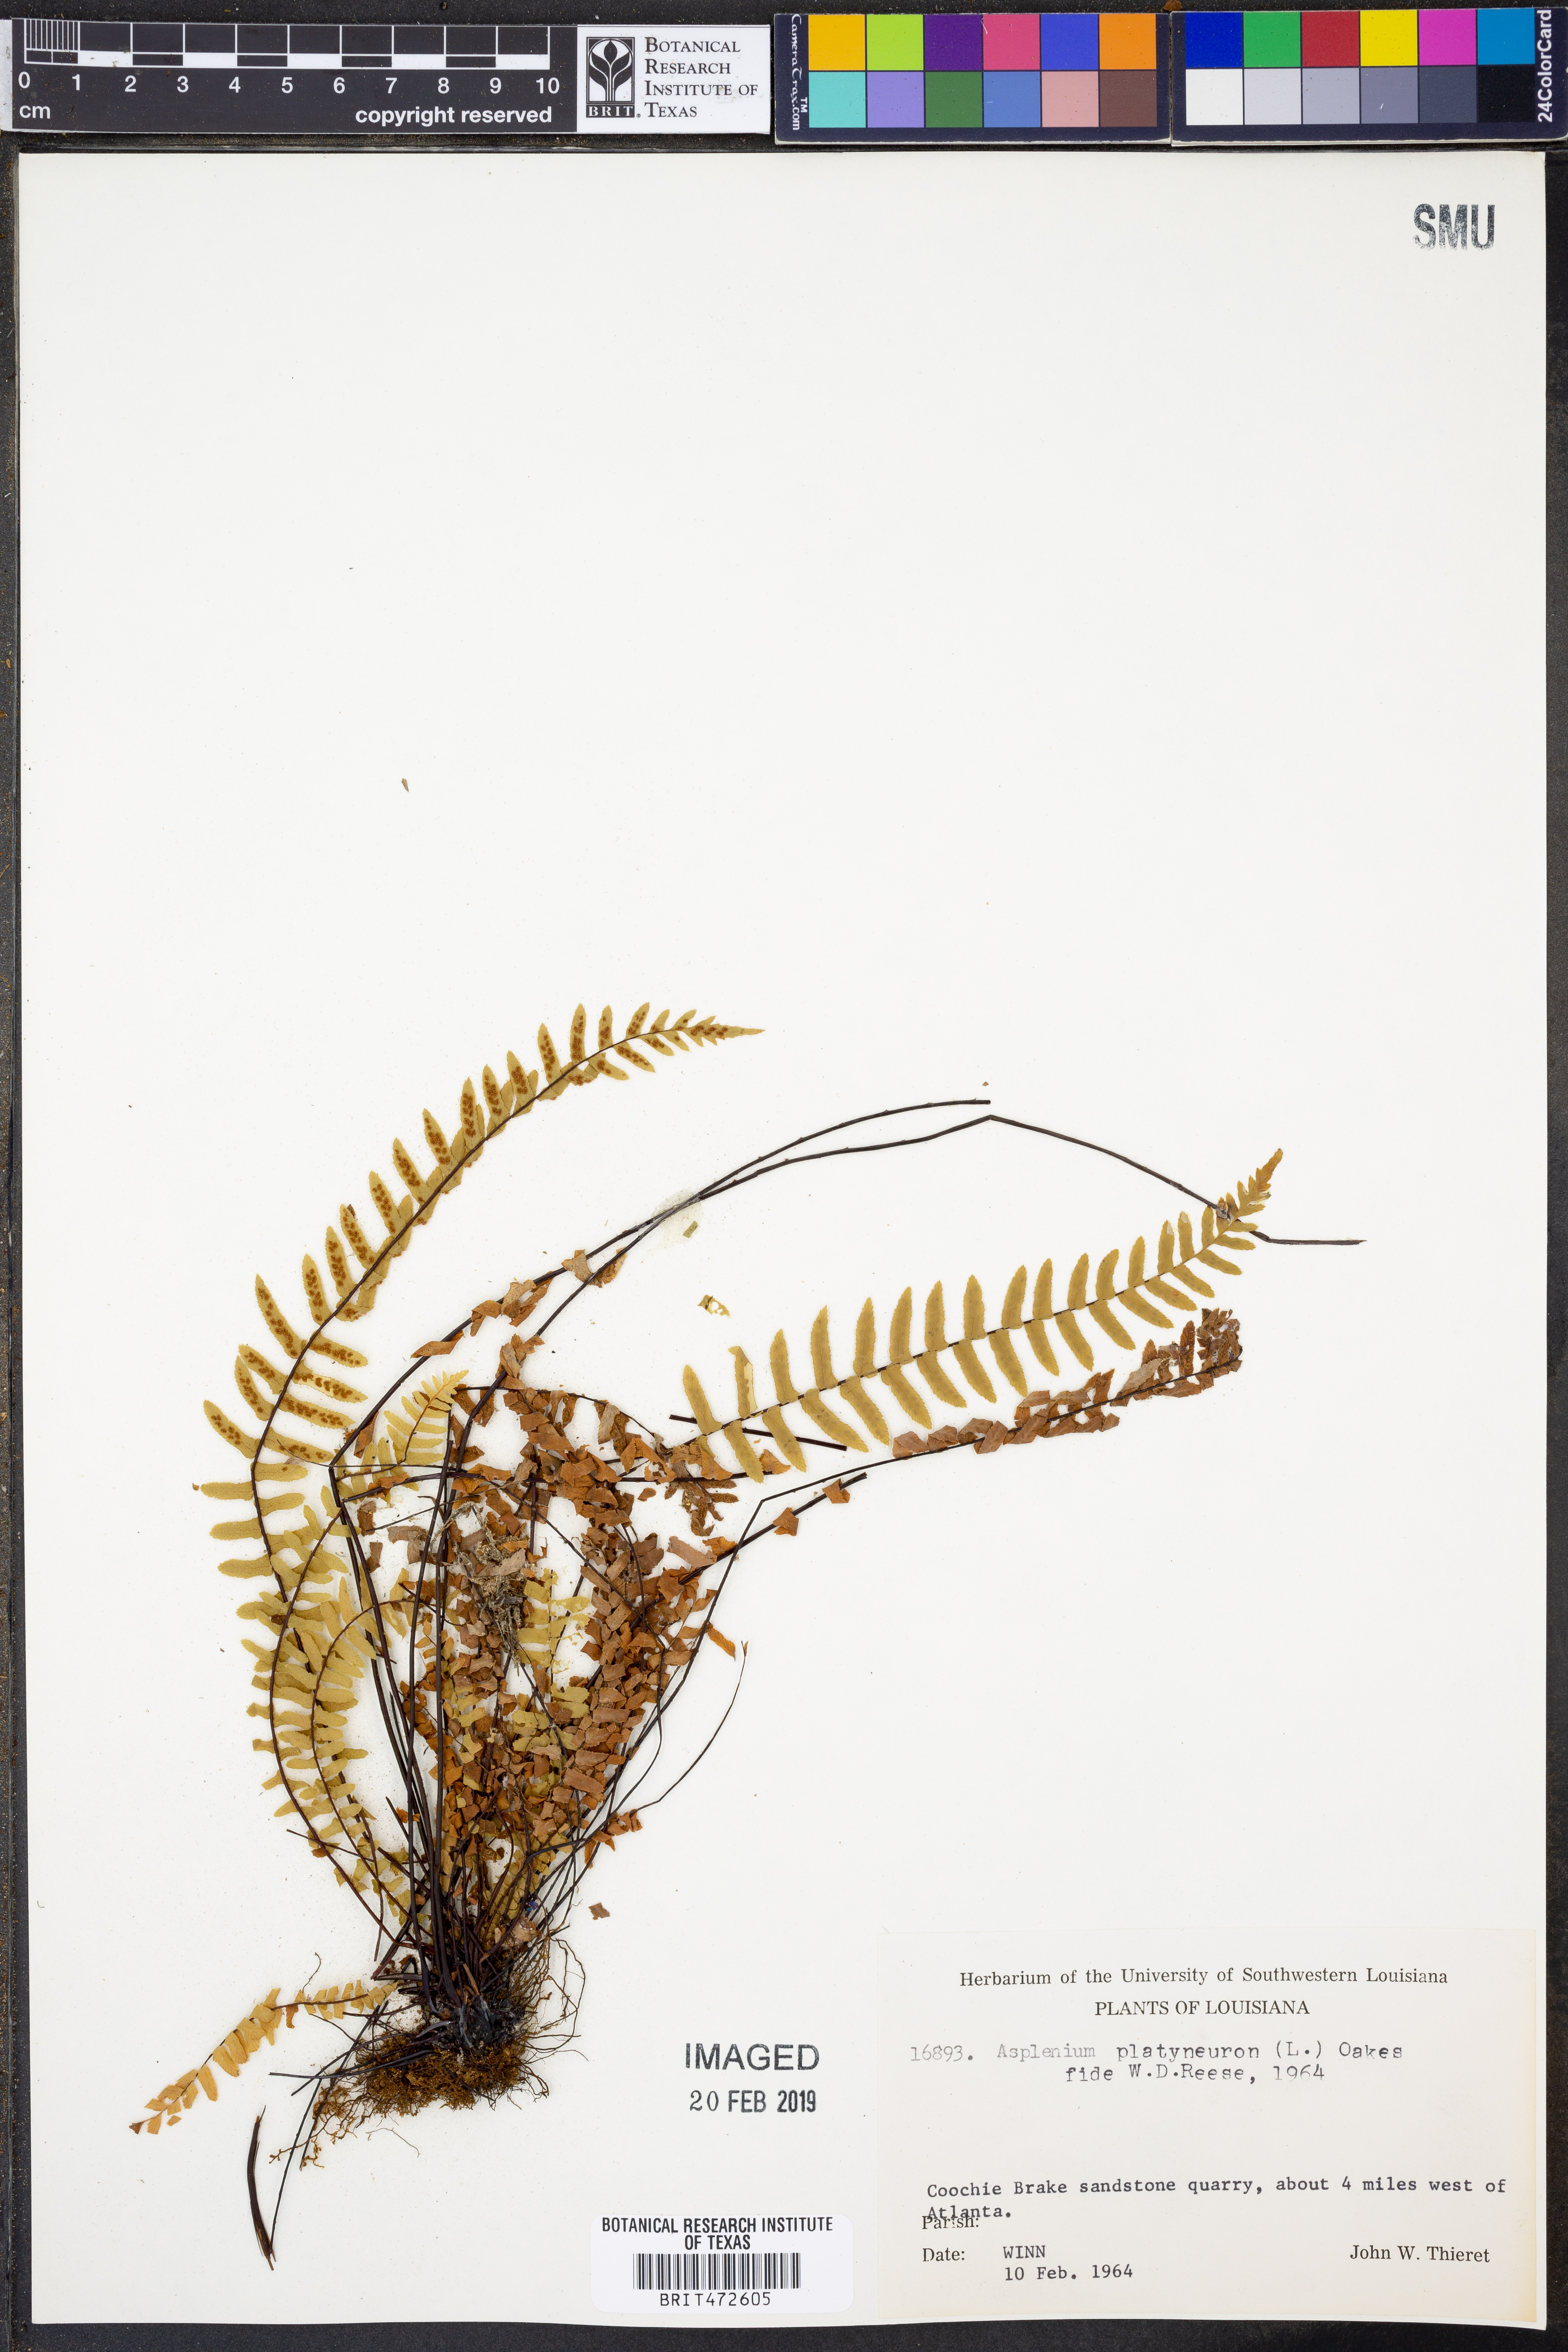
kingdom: Plantae
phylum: Tracheophyta
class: Polypodiopsida
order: Polypodiales
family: Aspleniaceae
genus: Asplenium
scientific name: Asplenium platyneuron
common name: Ebony spleenwort
